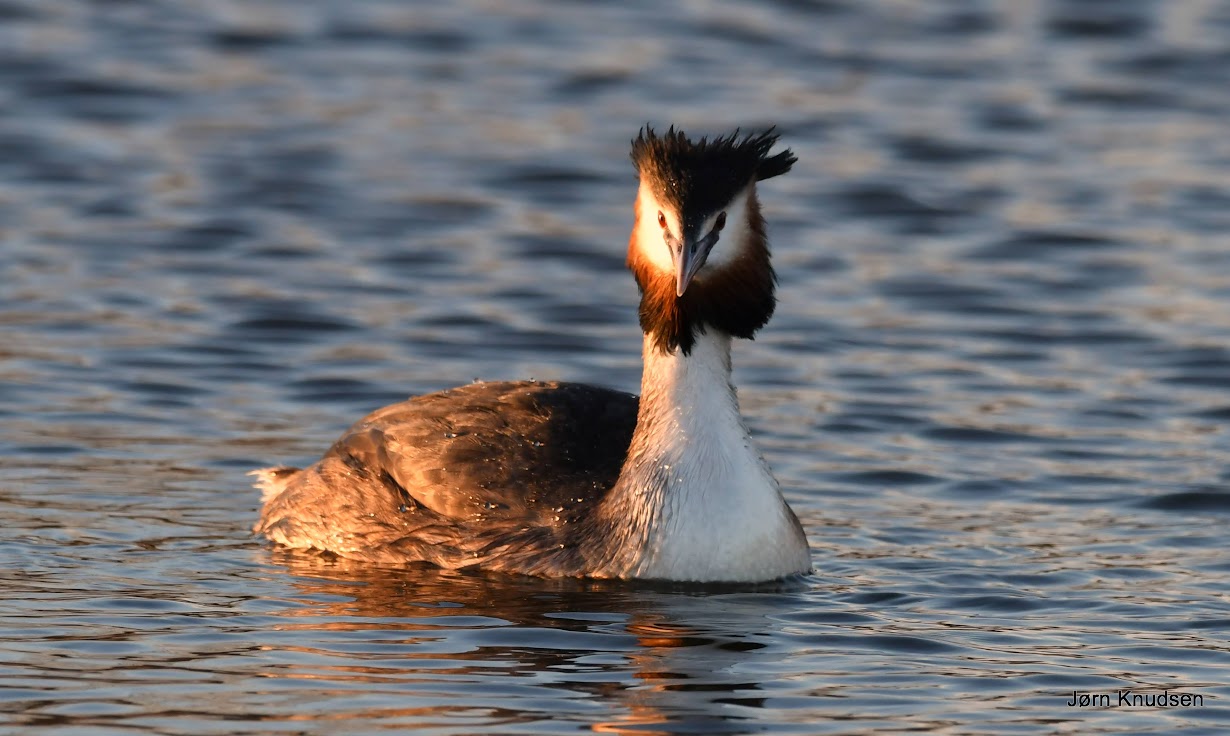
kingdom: Animalia
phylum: Chordata
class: Aves
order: Podicipediformes
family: Podicipedidae
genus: Podiceps
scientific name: Podiceps cristatus
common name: Toppet lappedykker
